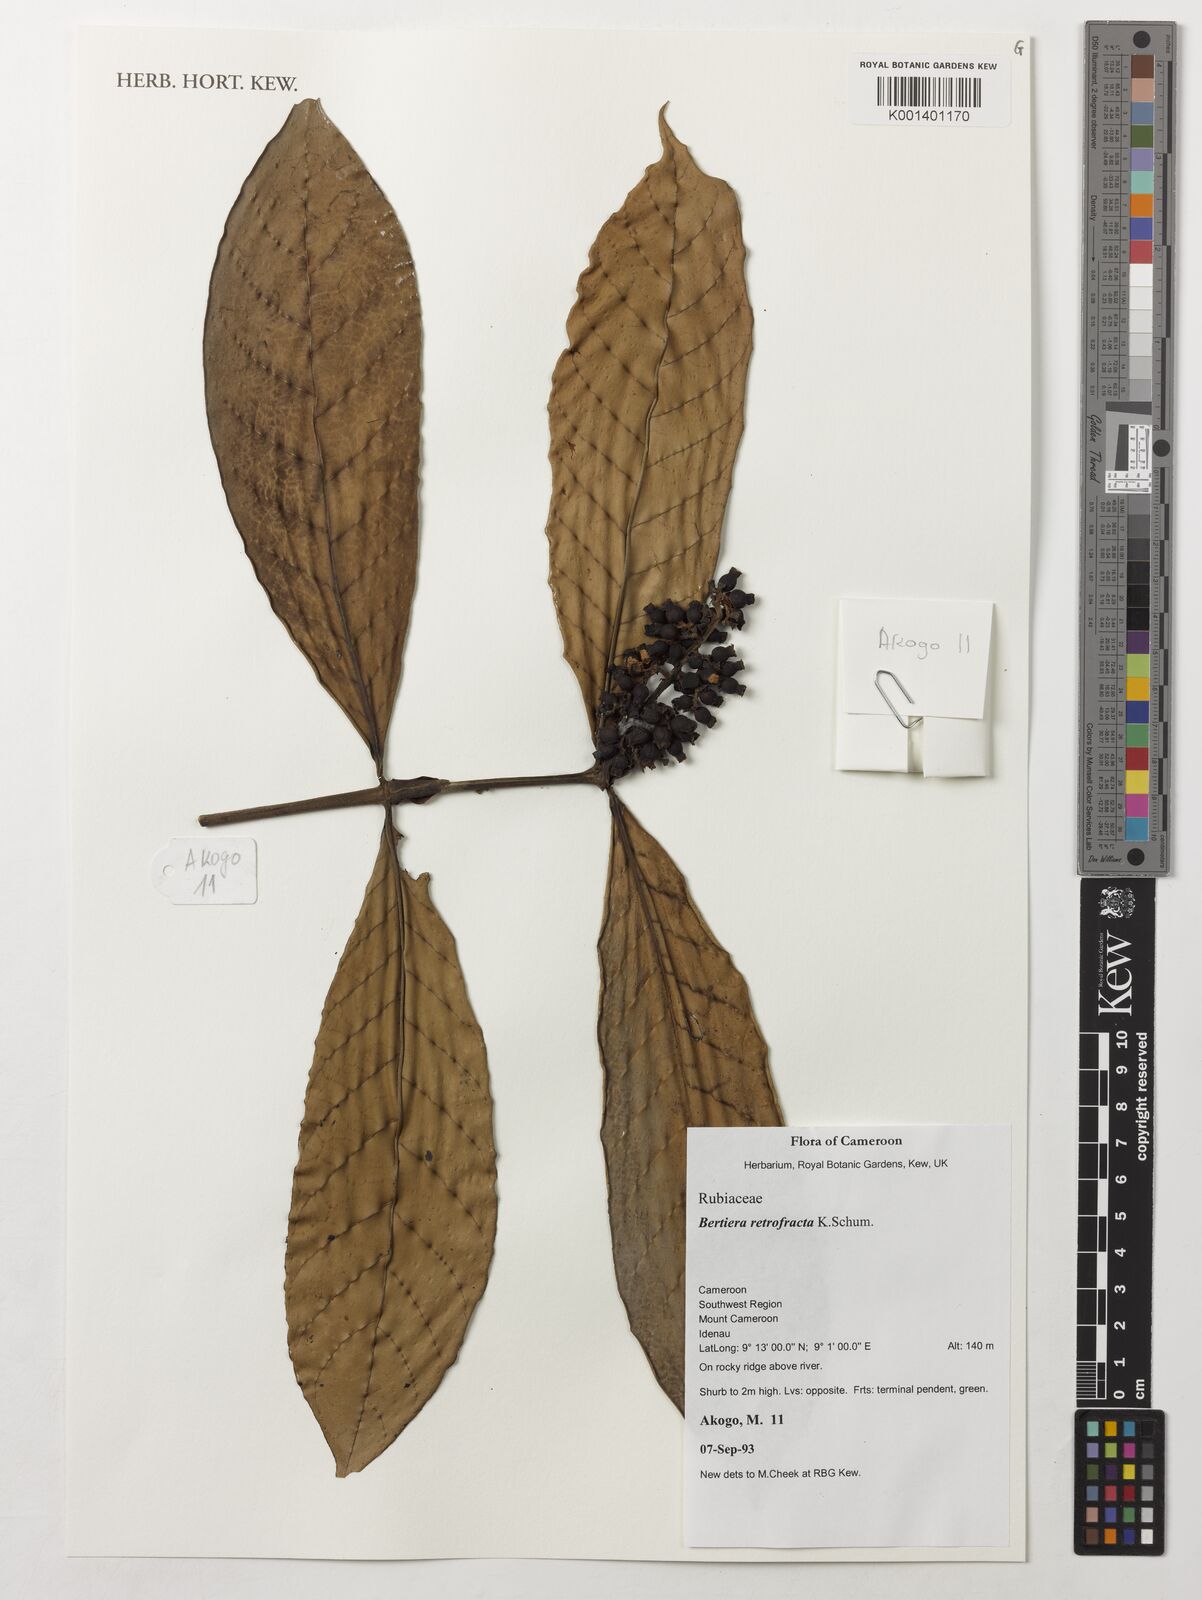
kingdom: Plantae
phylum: Tracheophyta
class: Magnoliopsida
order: Gentianales
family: Rubiaceae
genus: Bertiera
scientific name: Bertiera retrofracta
